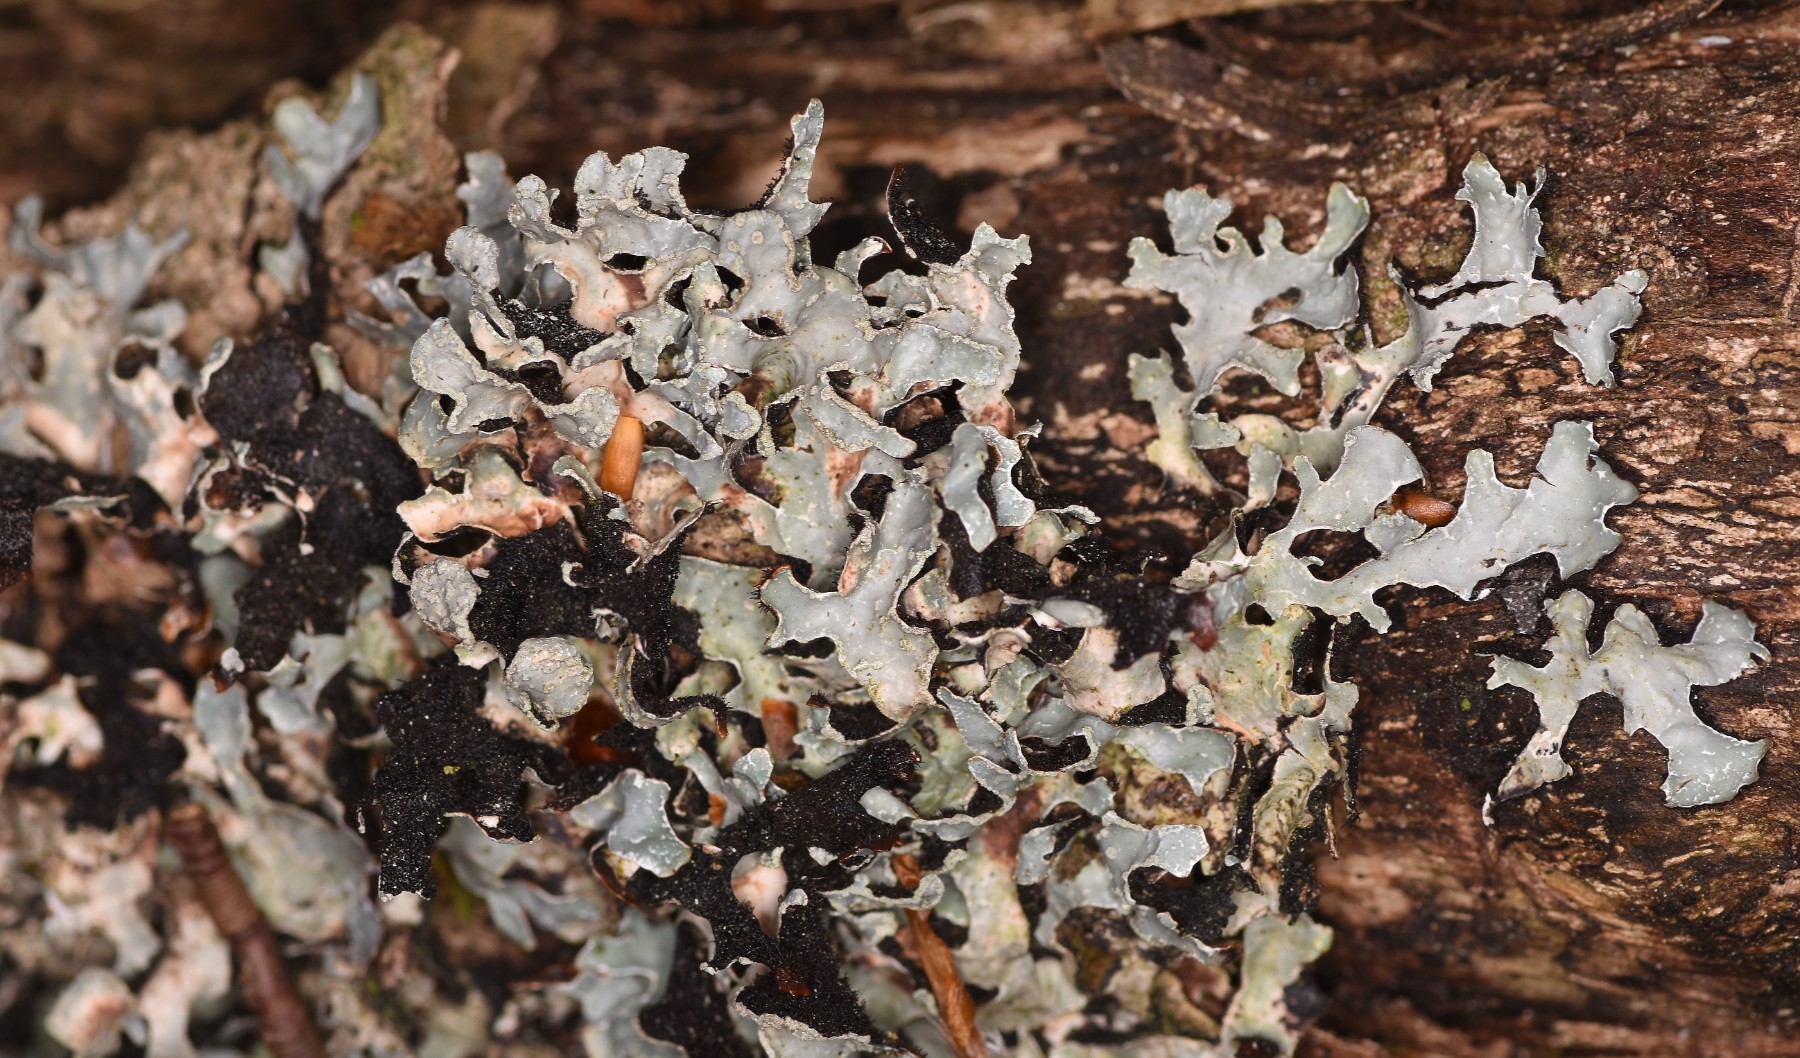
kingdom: Fungi
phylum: Ascomycota
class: Lecanoromycetes
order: Lecanorales
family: Parmeliaceae
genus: Parmelia
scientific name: Parmelia sulcata
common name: rynket skållav
